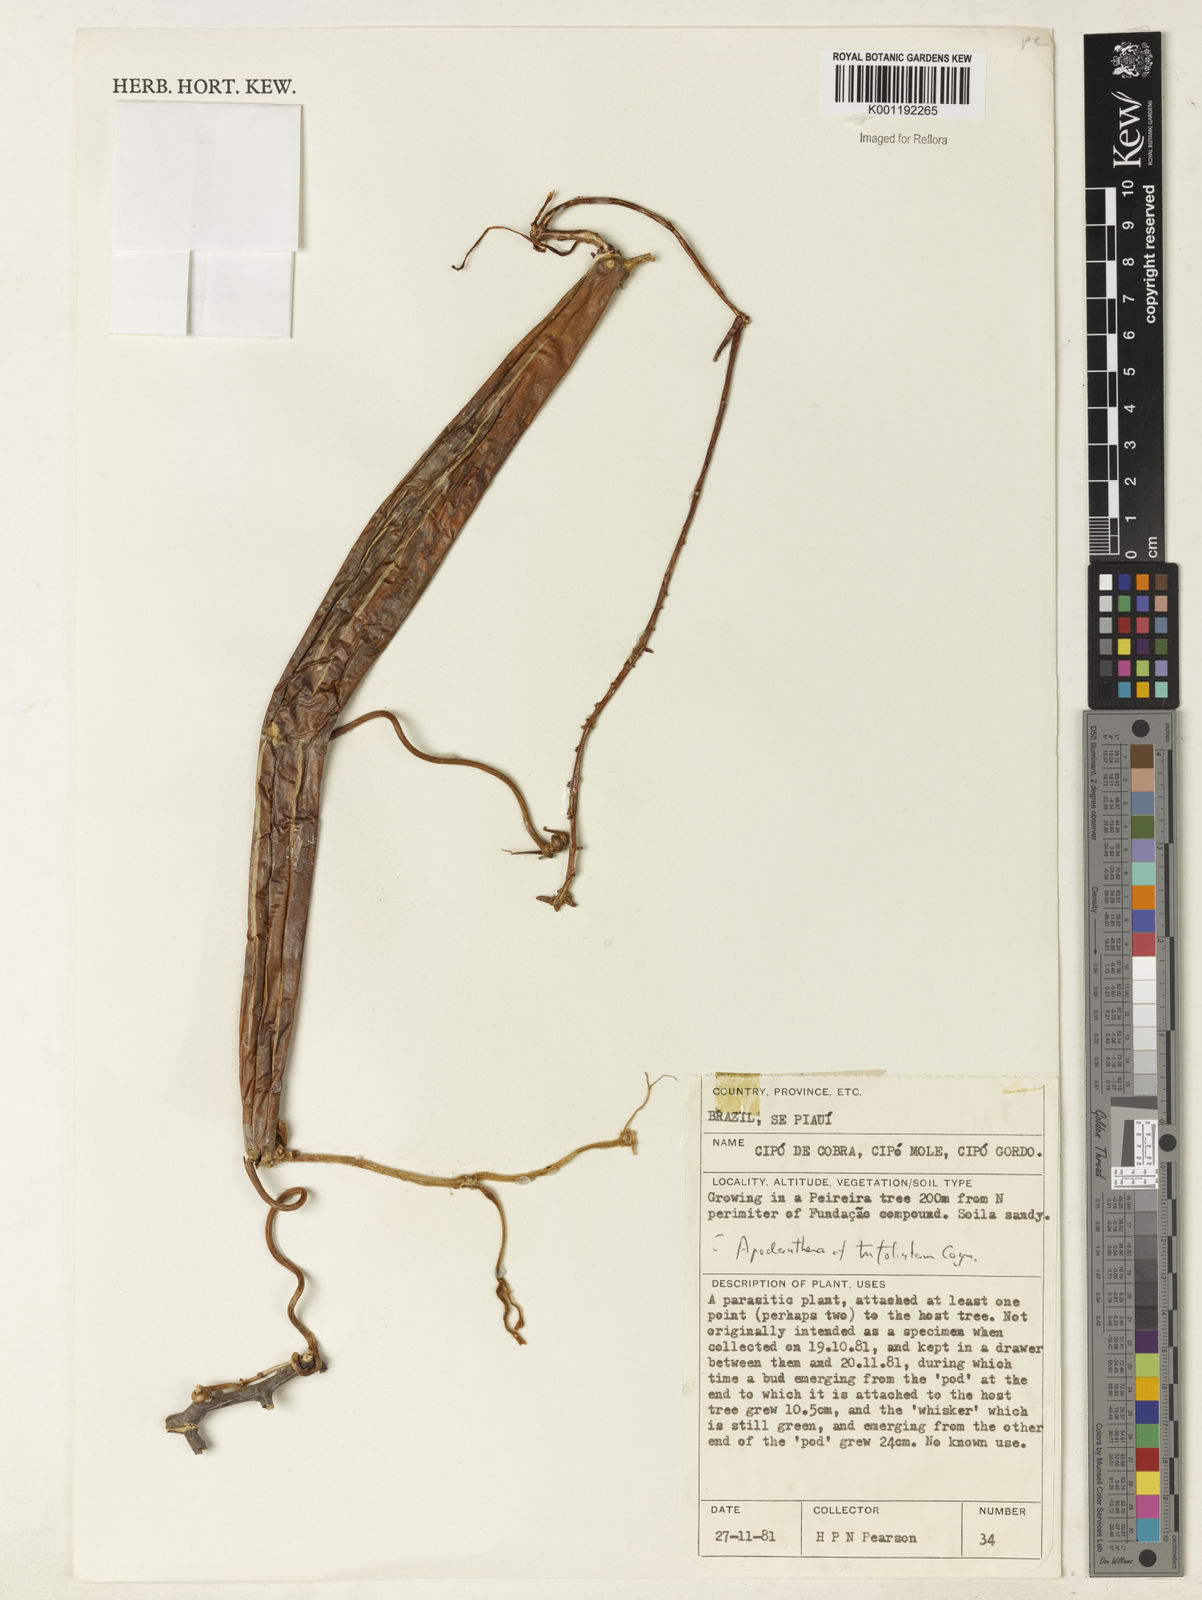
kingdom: Plantae
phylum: Tracheophyta
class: Magnoliopsida
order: Cucurbitales
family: Cucurbitaceae
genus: Apodanthera
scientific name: Apodanthera trifoliata
